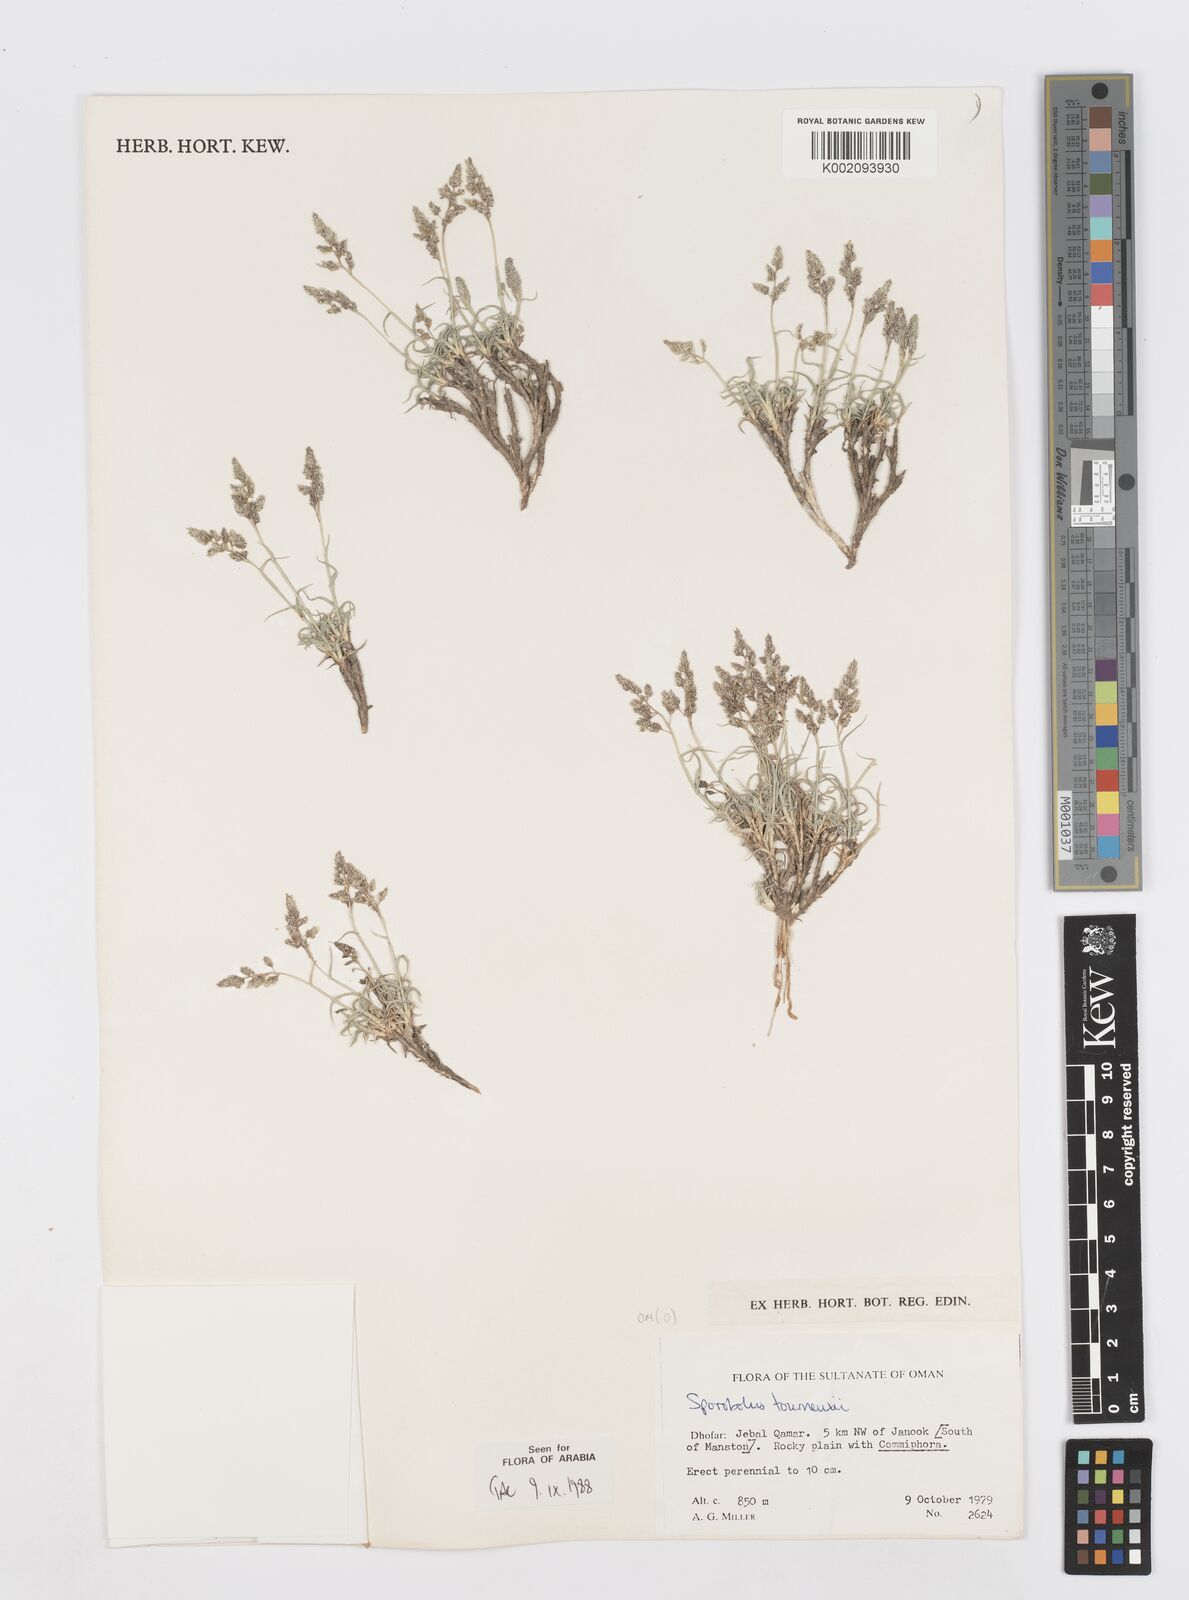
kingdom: Plantae
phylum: Tracheophyta
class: Liliopsida
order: Poales
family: Poaceae
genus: Sporobolus
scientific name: Sporobolus tourneuxii
